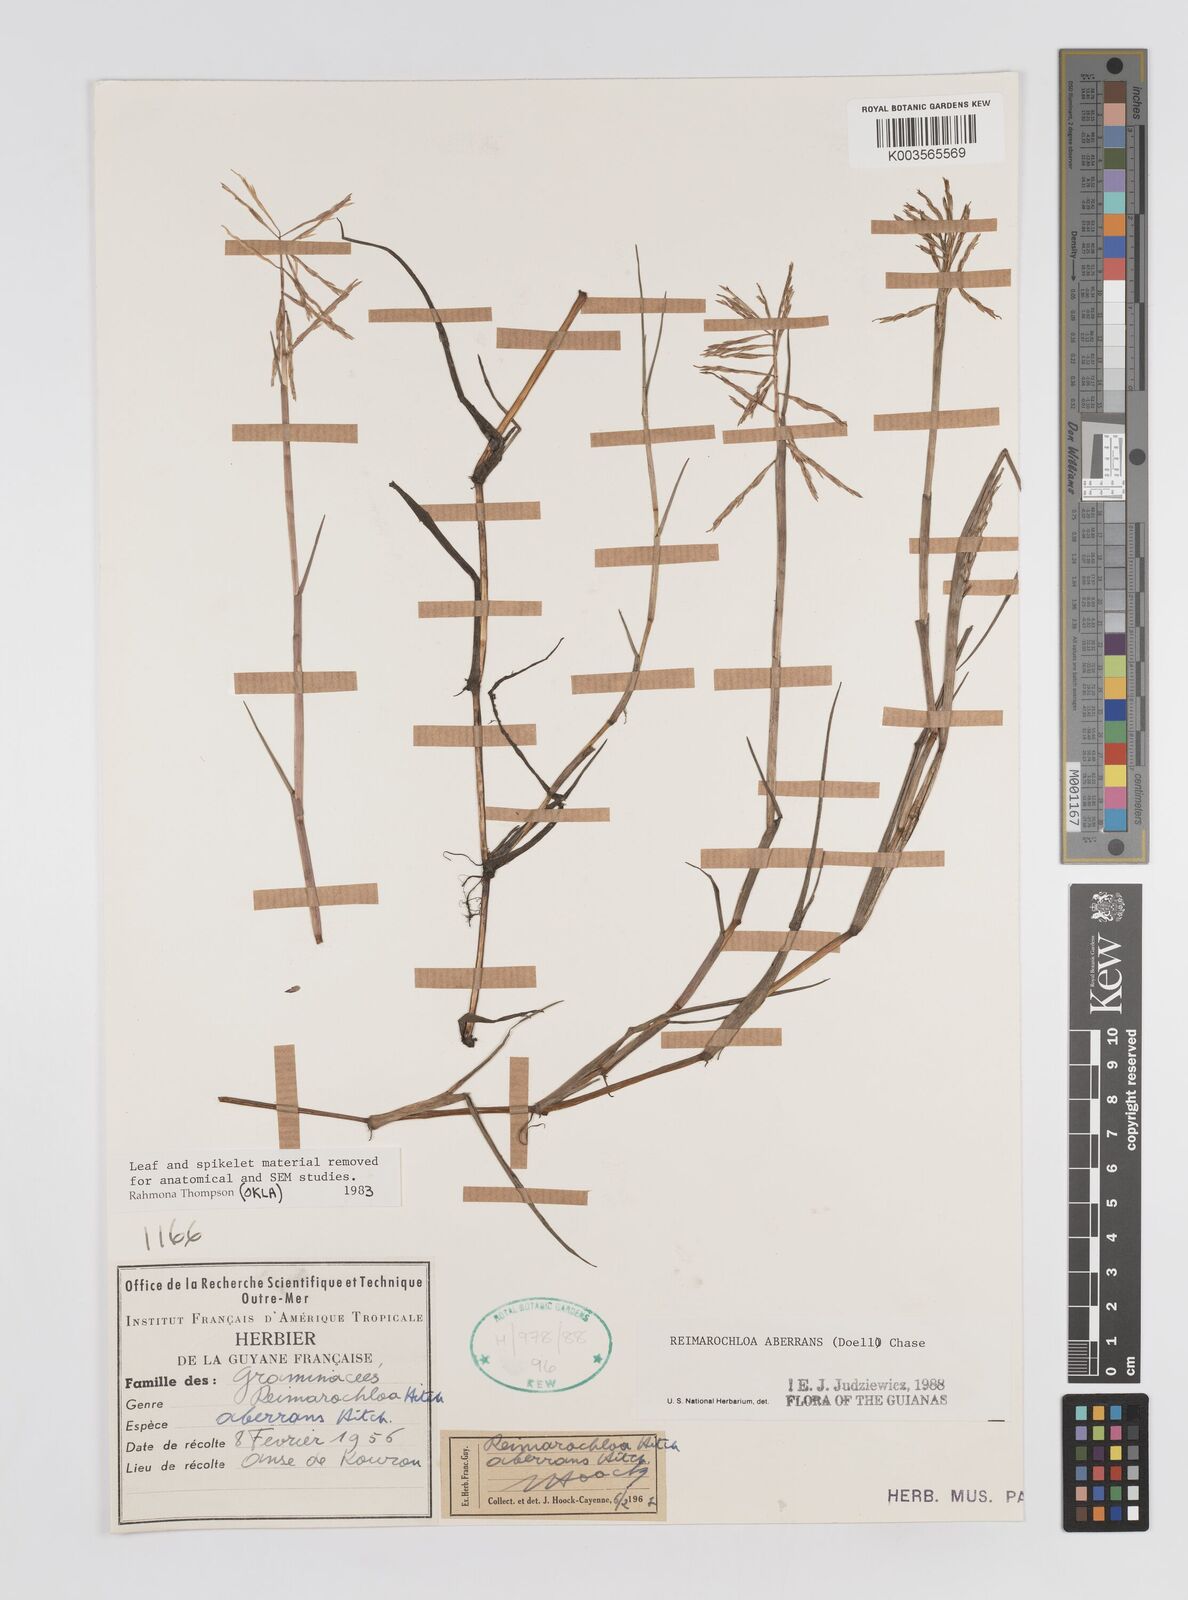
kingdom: Plantae
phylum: Tracheophyta
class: Liliopsida
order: Poales
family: Poaceae
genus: Paspalum
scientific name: Paspalum aberrans
